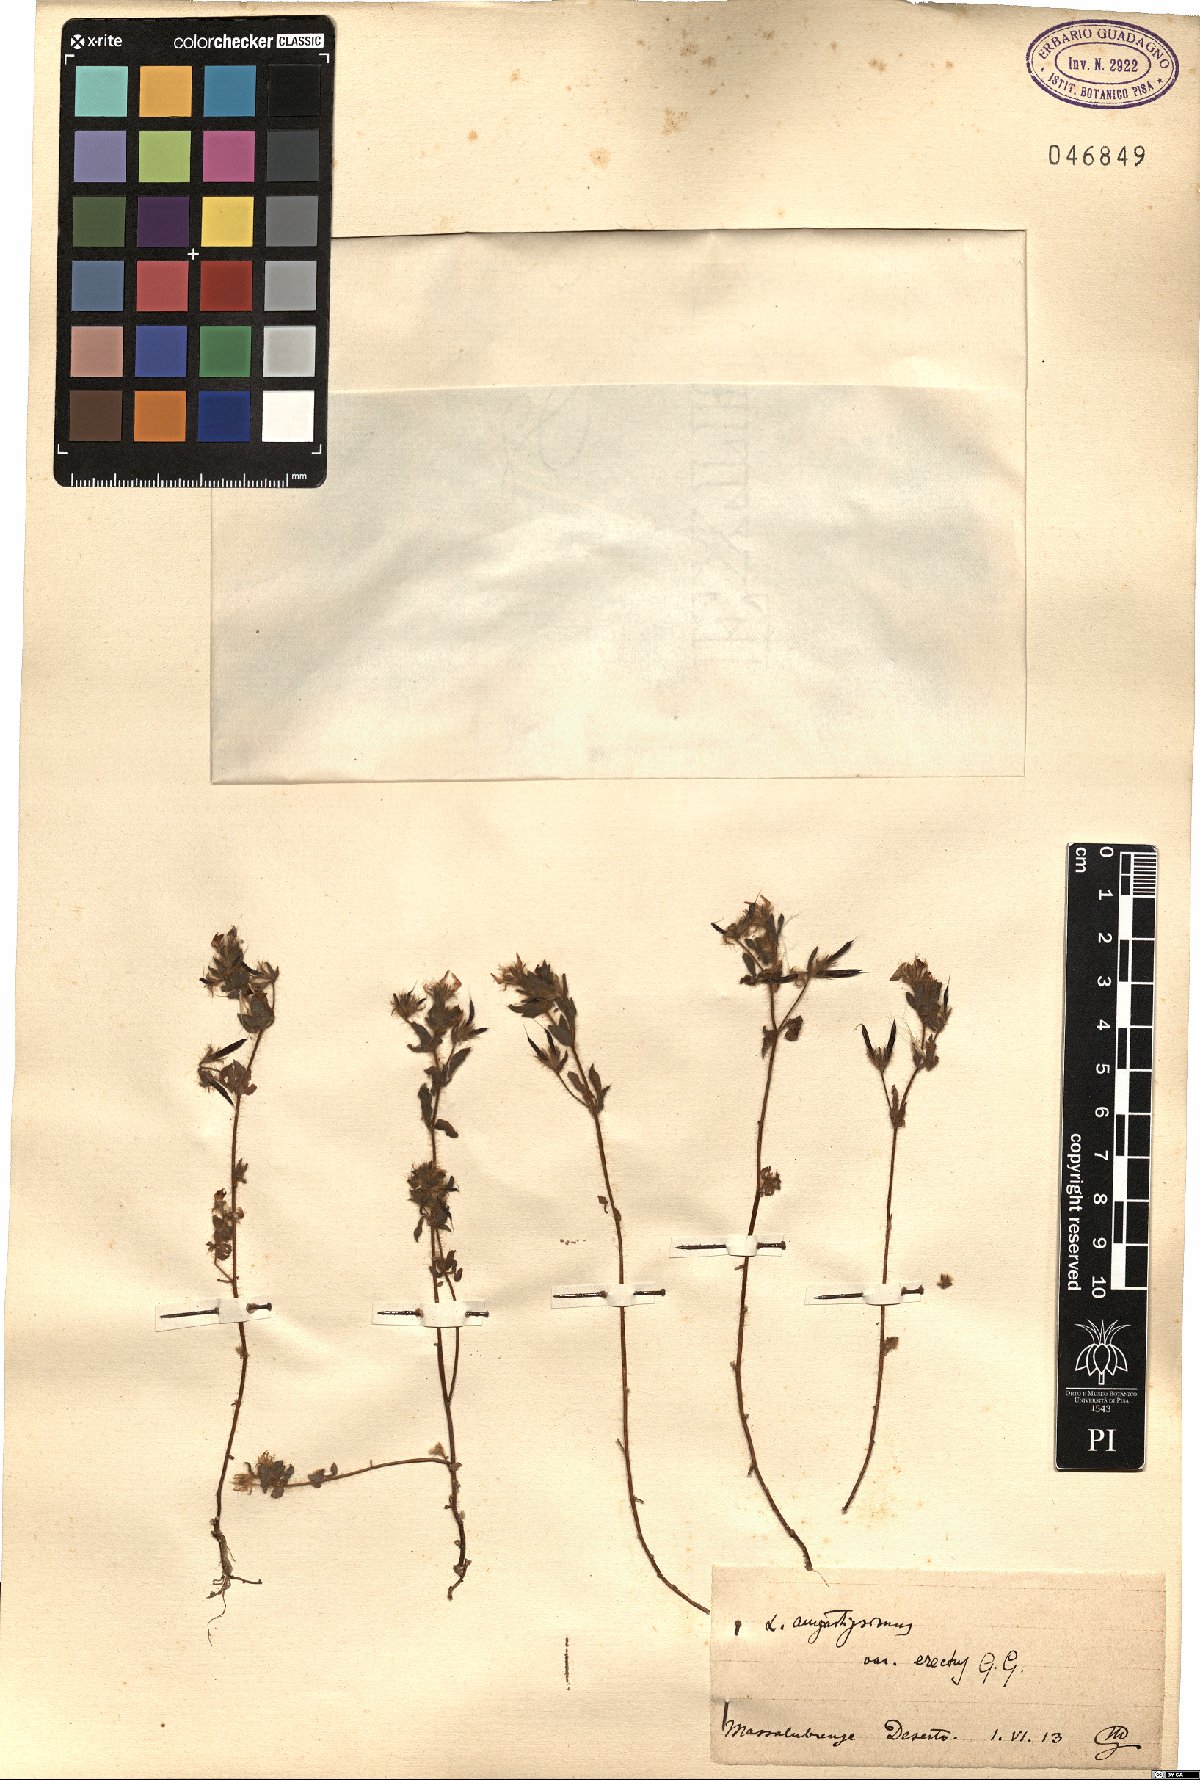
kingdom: Plantae
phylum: Tracheophyta
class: Magnoliopsida
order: Fabales
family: Fabaceae
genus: Lotus
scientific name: Lotus angustissimus
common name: Slender bird's-foot trefoil
